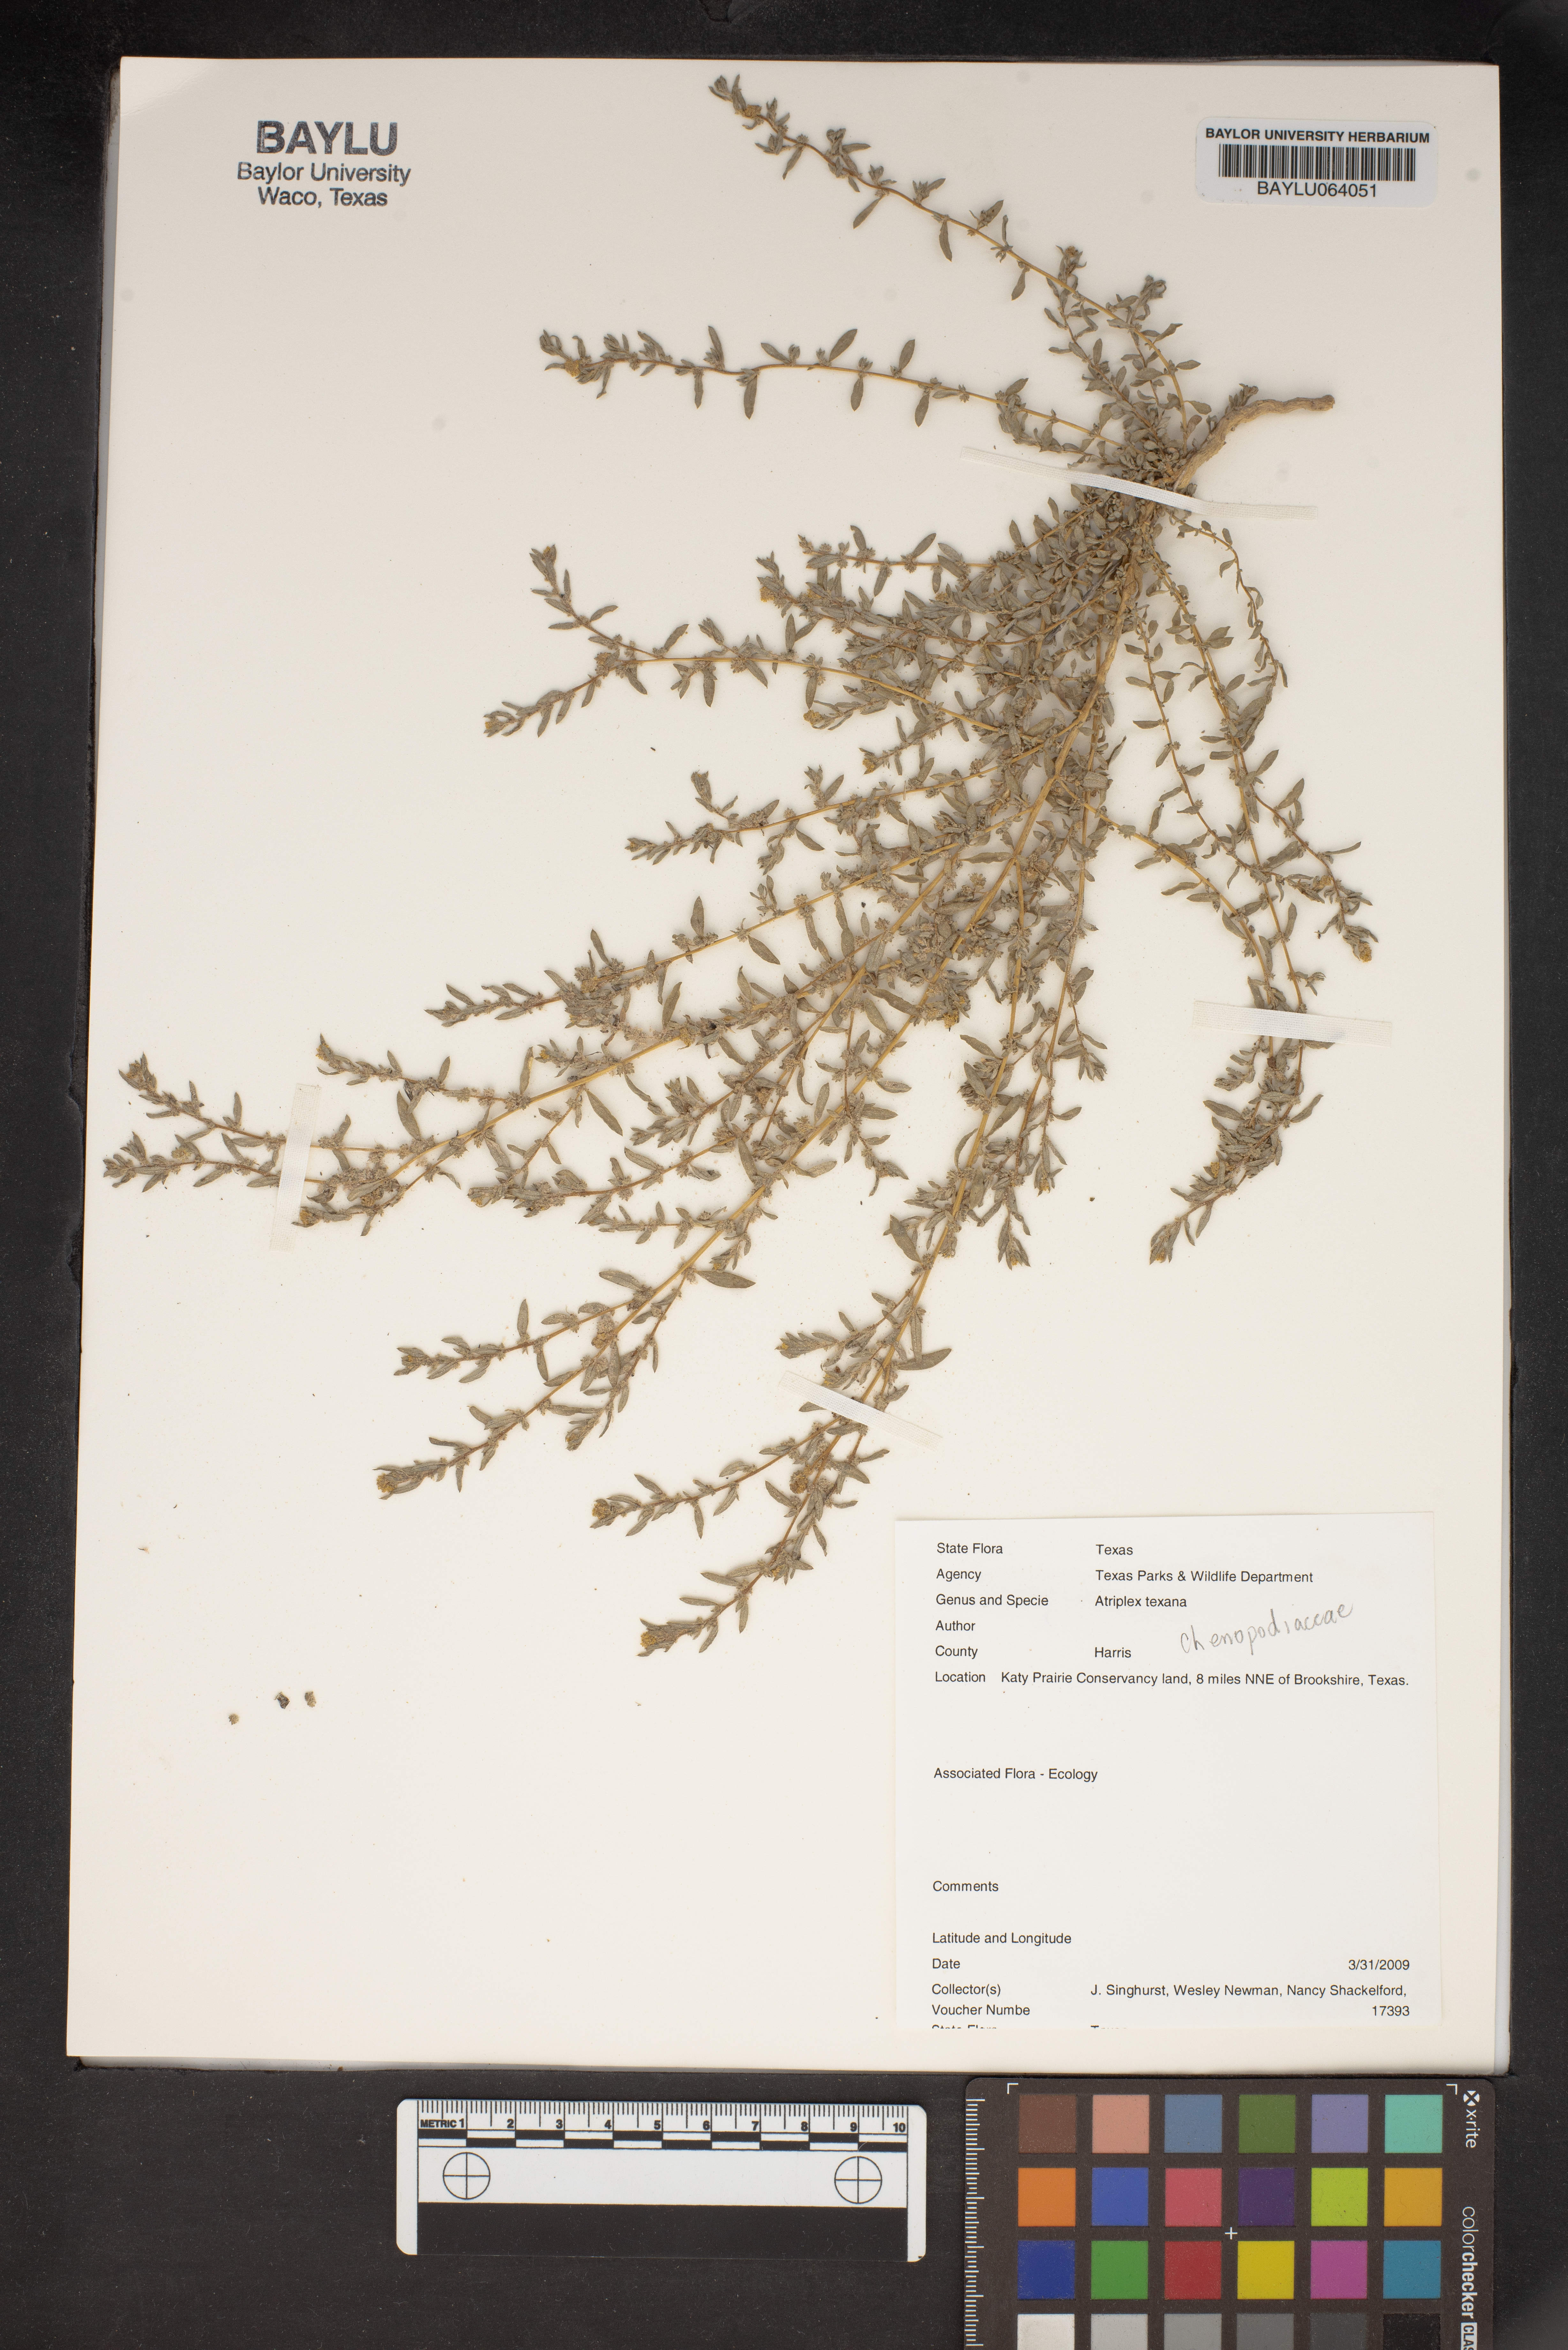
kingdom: Plantae
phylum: Tracheophyta
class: Magnoliopsida
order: Caryophyllales
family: Amaranthaceae
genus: Atriplex
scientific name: Atriplex texana
